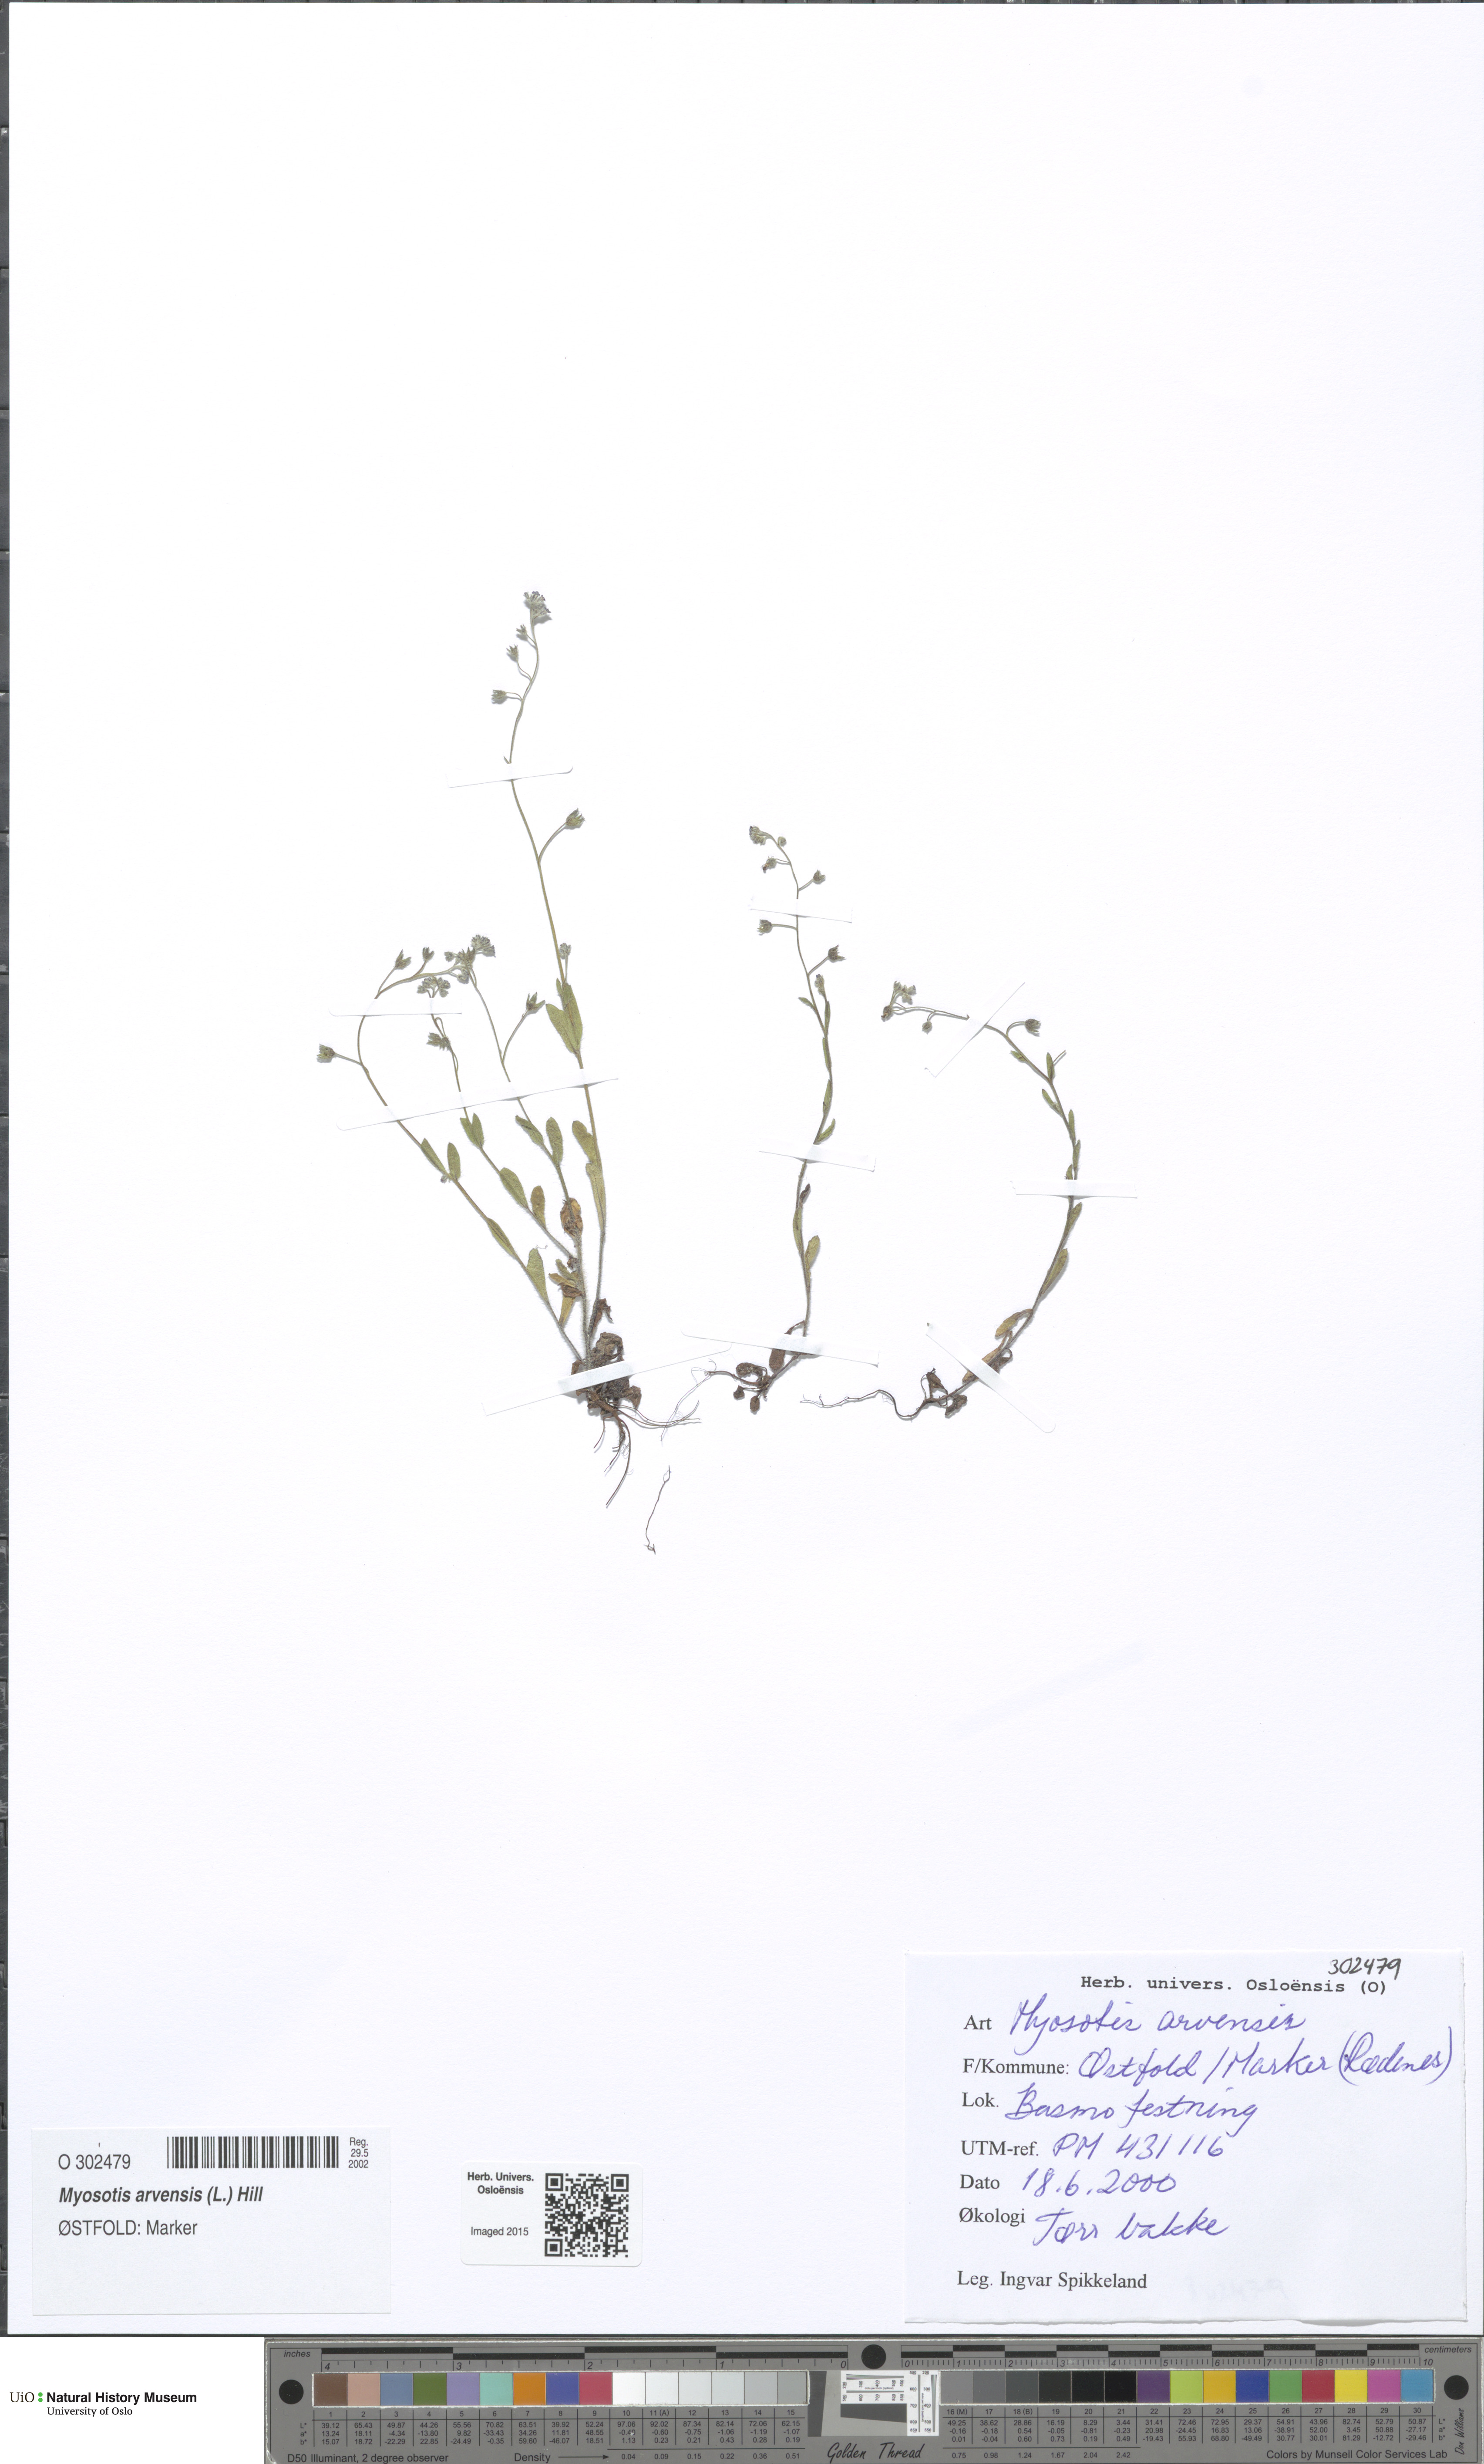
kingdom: Plantae
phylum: Tracheophyta
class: Magnoliopsida
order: Boraginales
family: Boraginaceae
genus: Myosotis
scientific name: Myosotis arvensis
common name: Field forget-me-not
